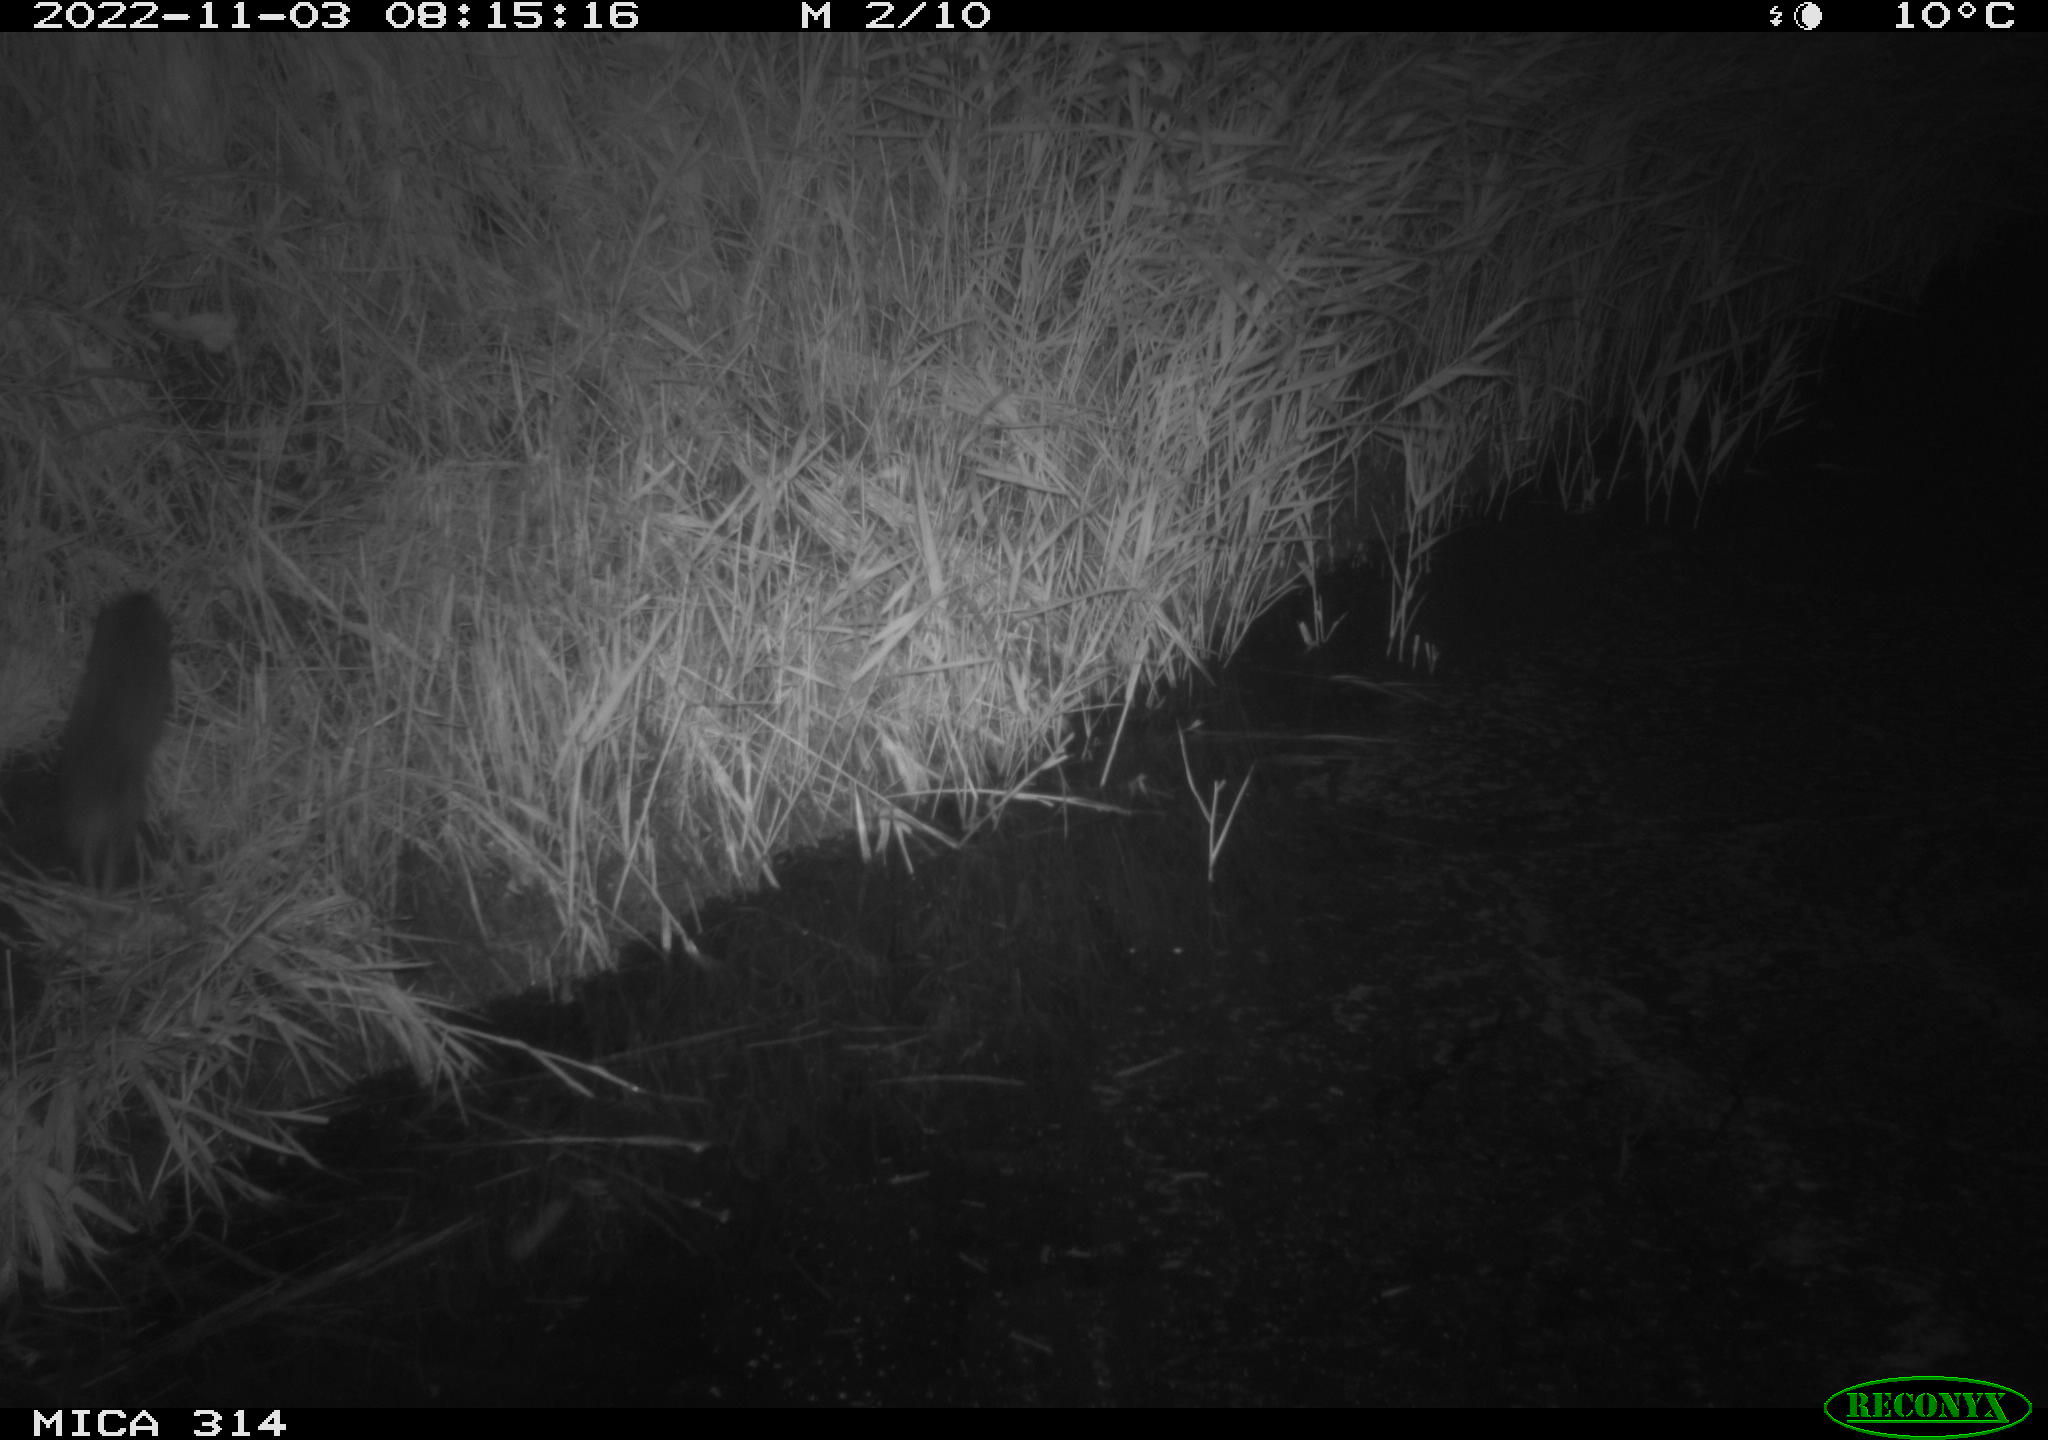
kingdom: Animalia
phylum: Chordata
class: Mammalia
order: Rodentia
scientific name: Rodentia
